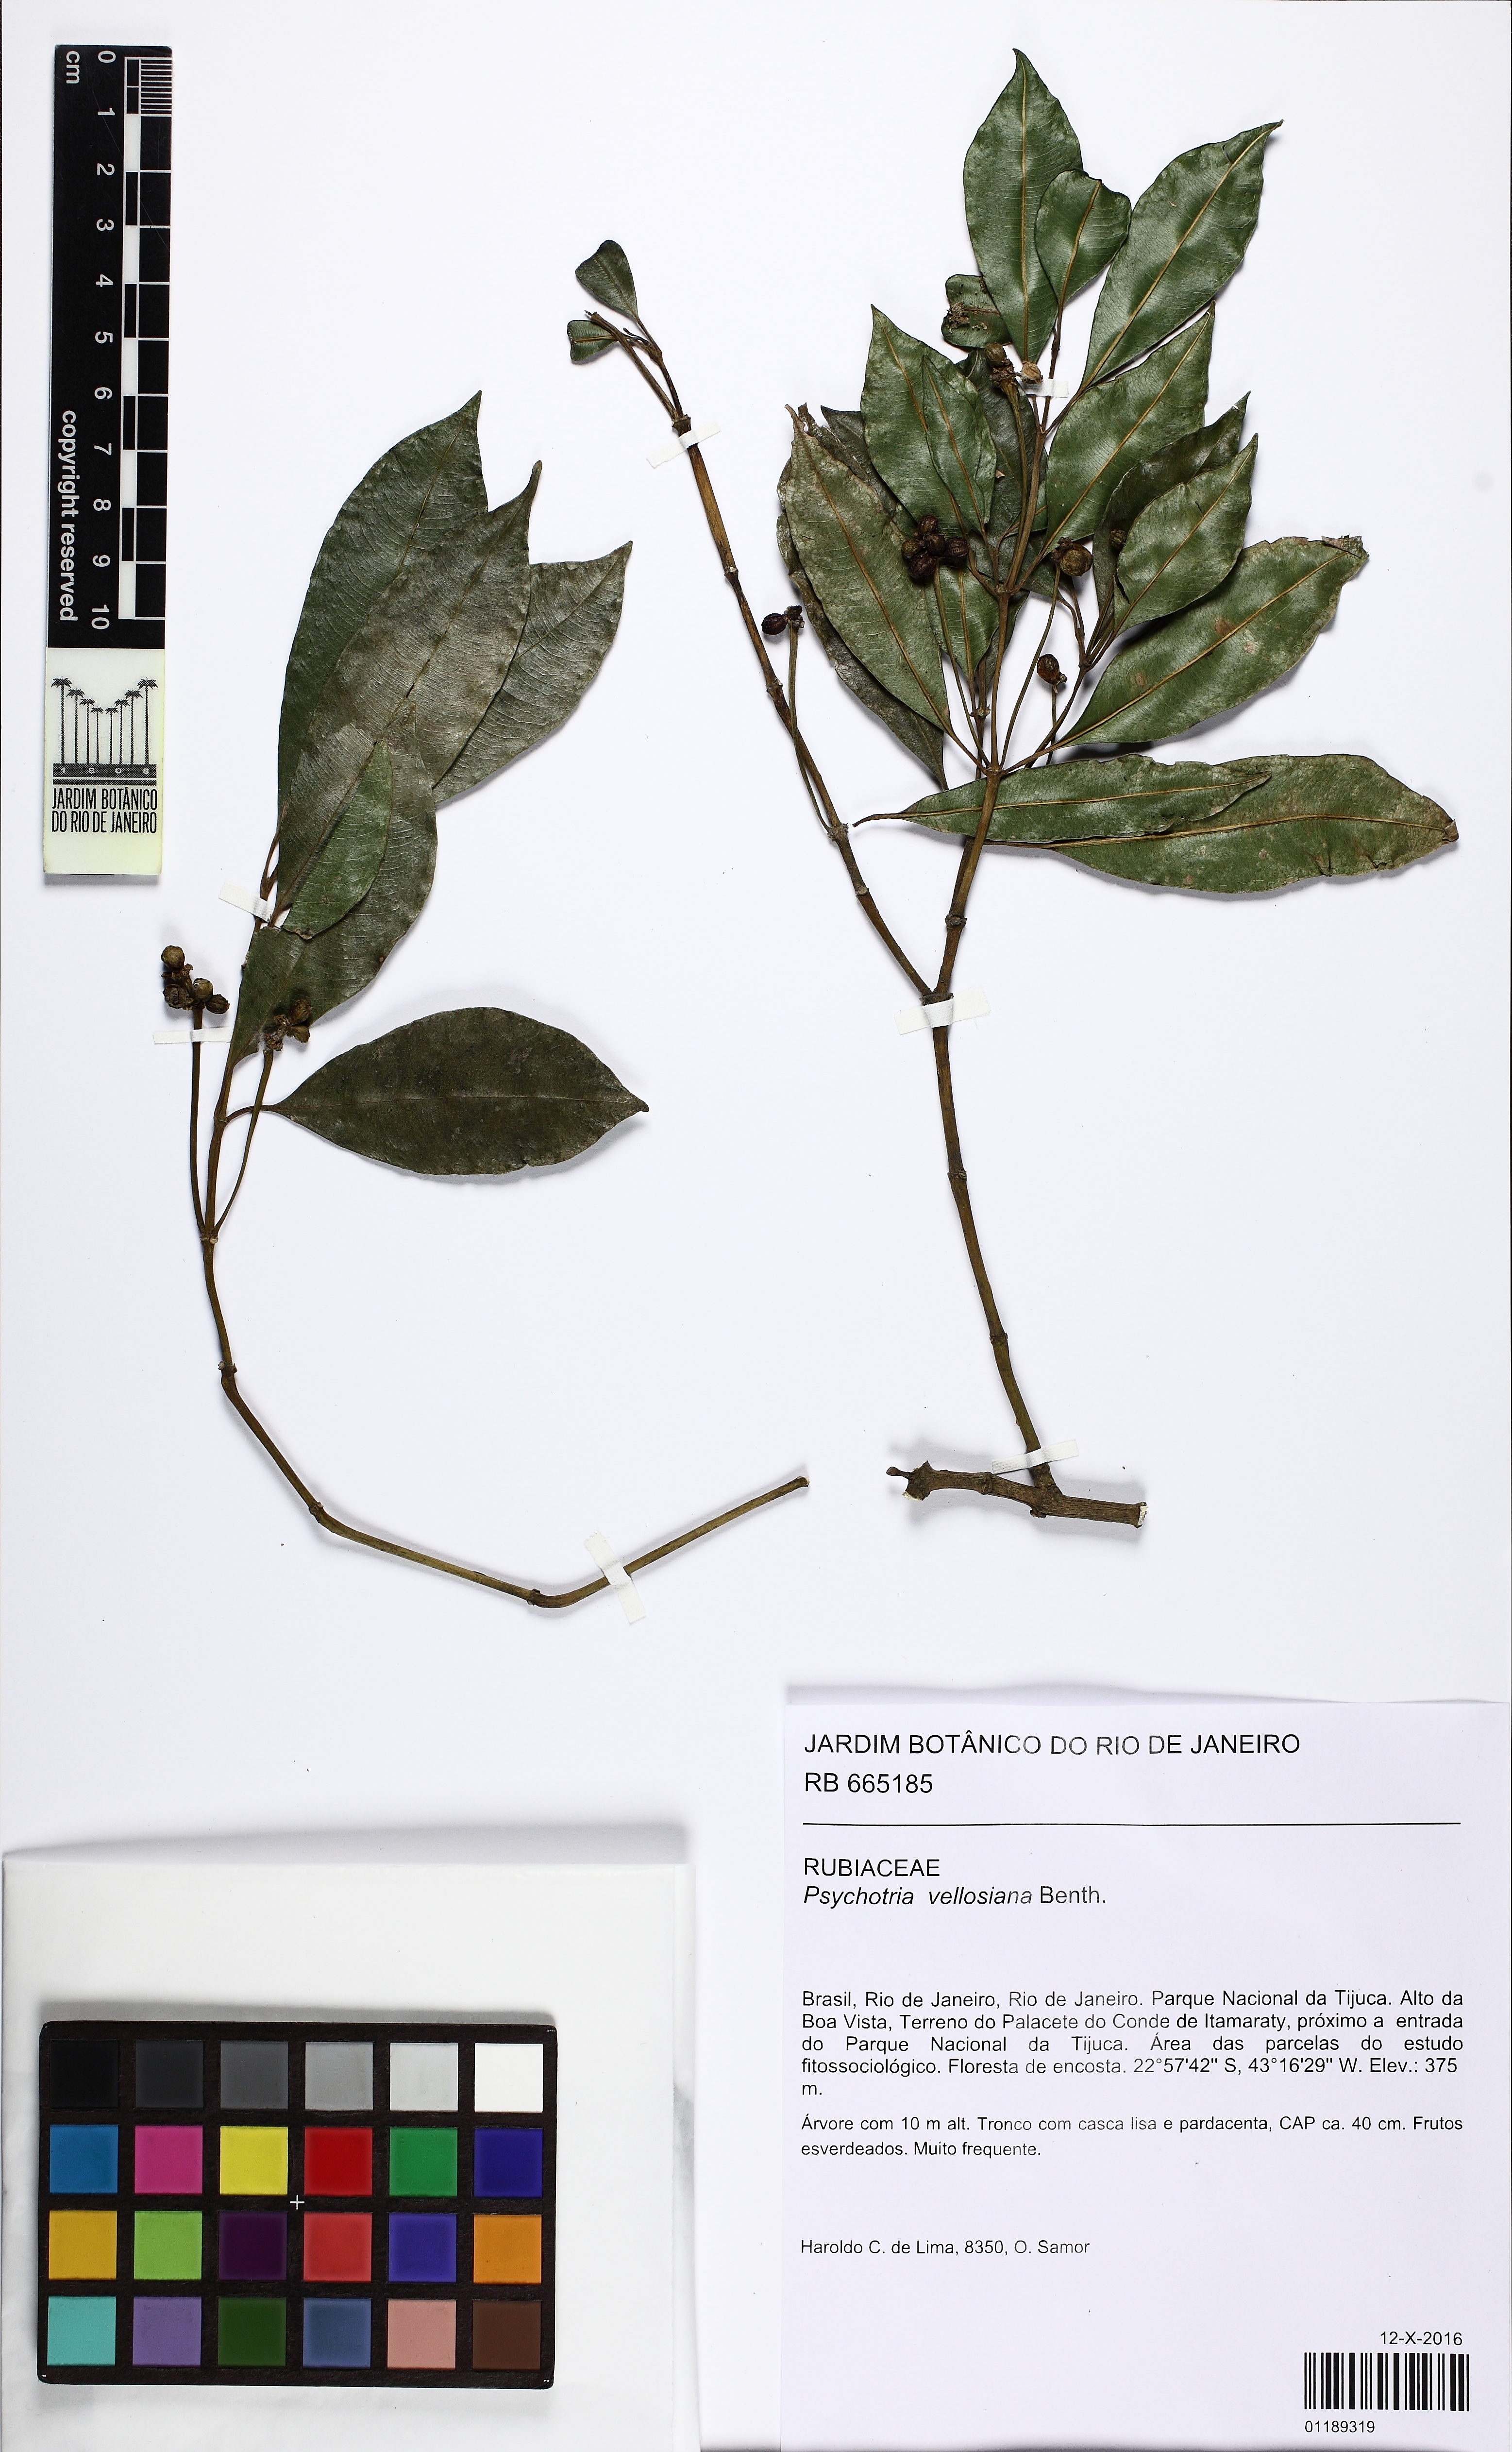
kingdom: Plantae
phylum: Tracheophyta
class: Magnoliopsida
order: Gentianales
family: Rubiaceae
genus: Palicourea
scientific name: Palicourea sessilis
